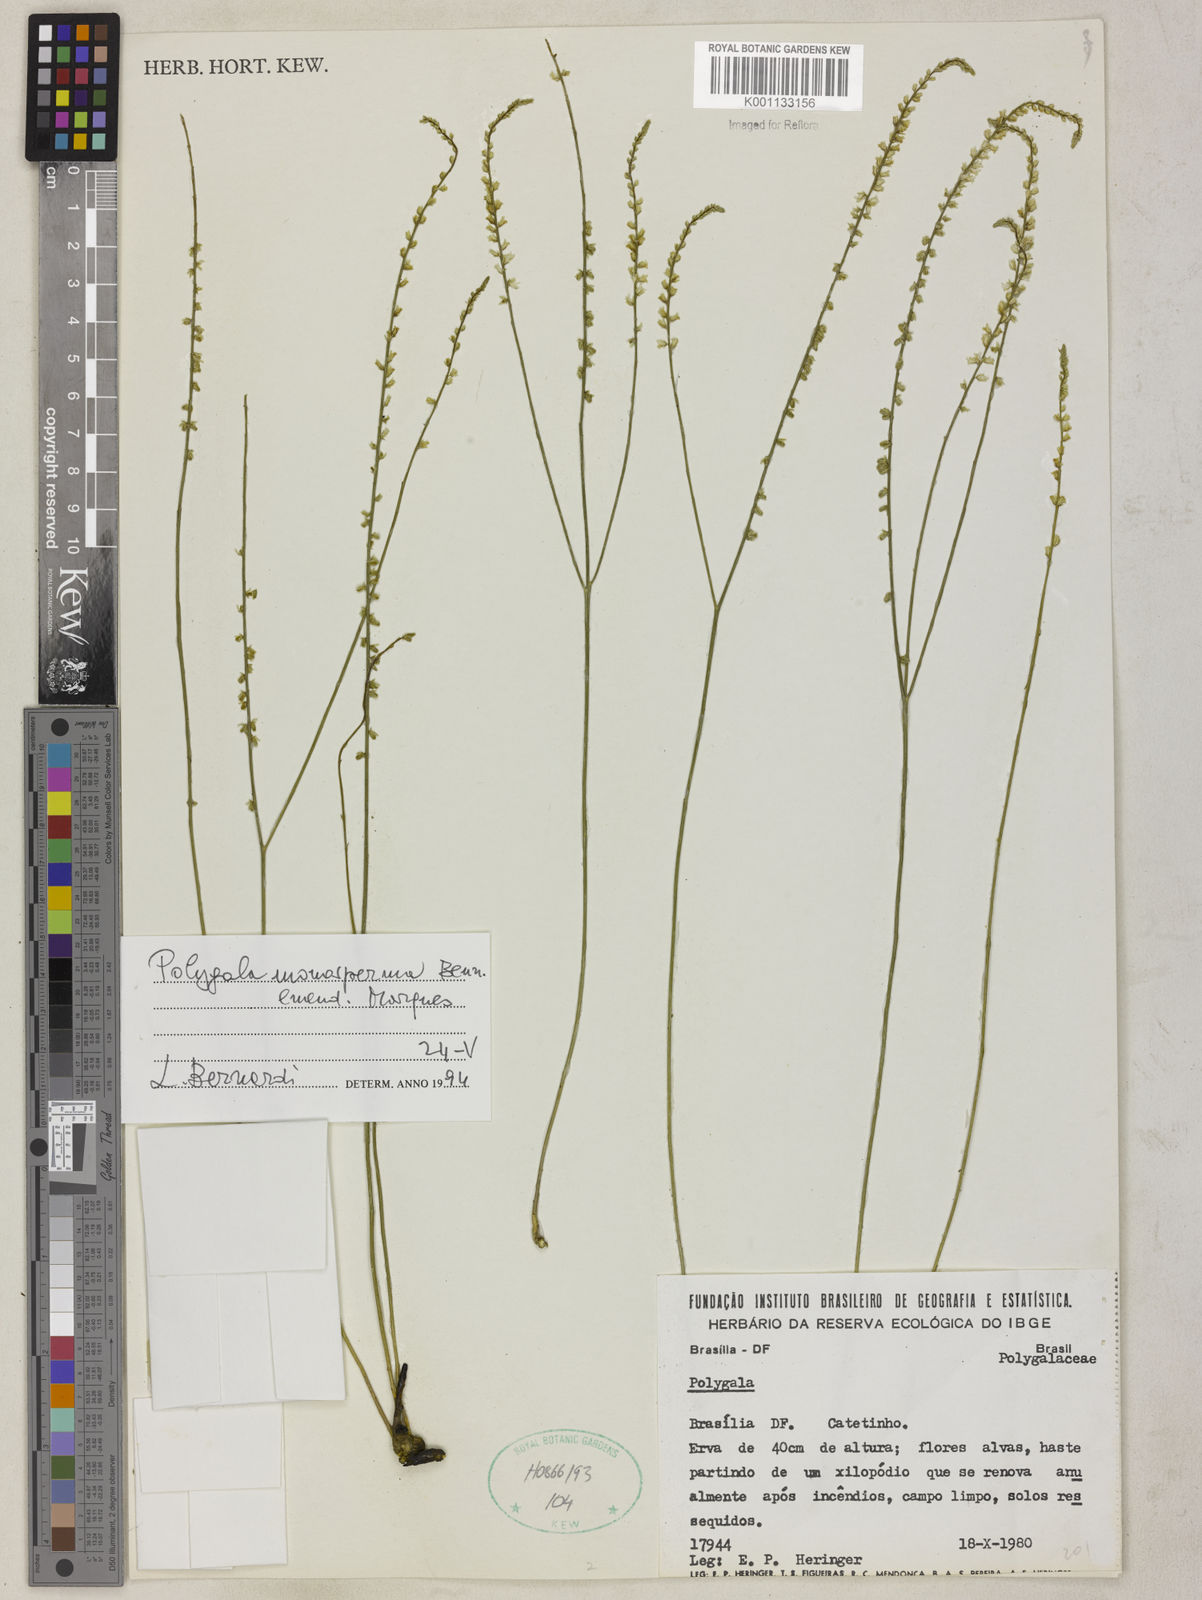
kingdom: Plantae
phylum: Tracheophyta
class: Magnoliopsida
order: Fabales
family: Polygalaceae
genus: Polygala
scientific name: Polygala monosperma
